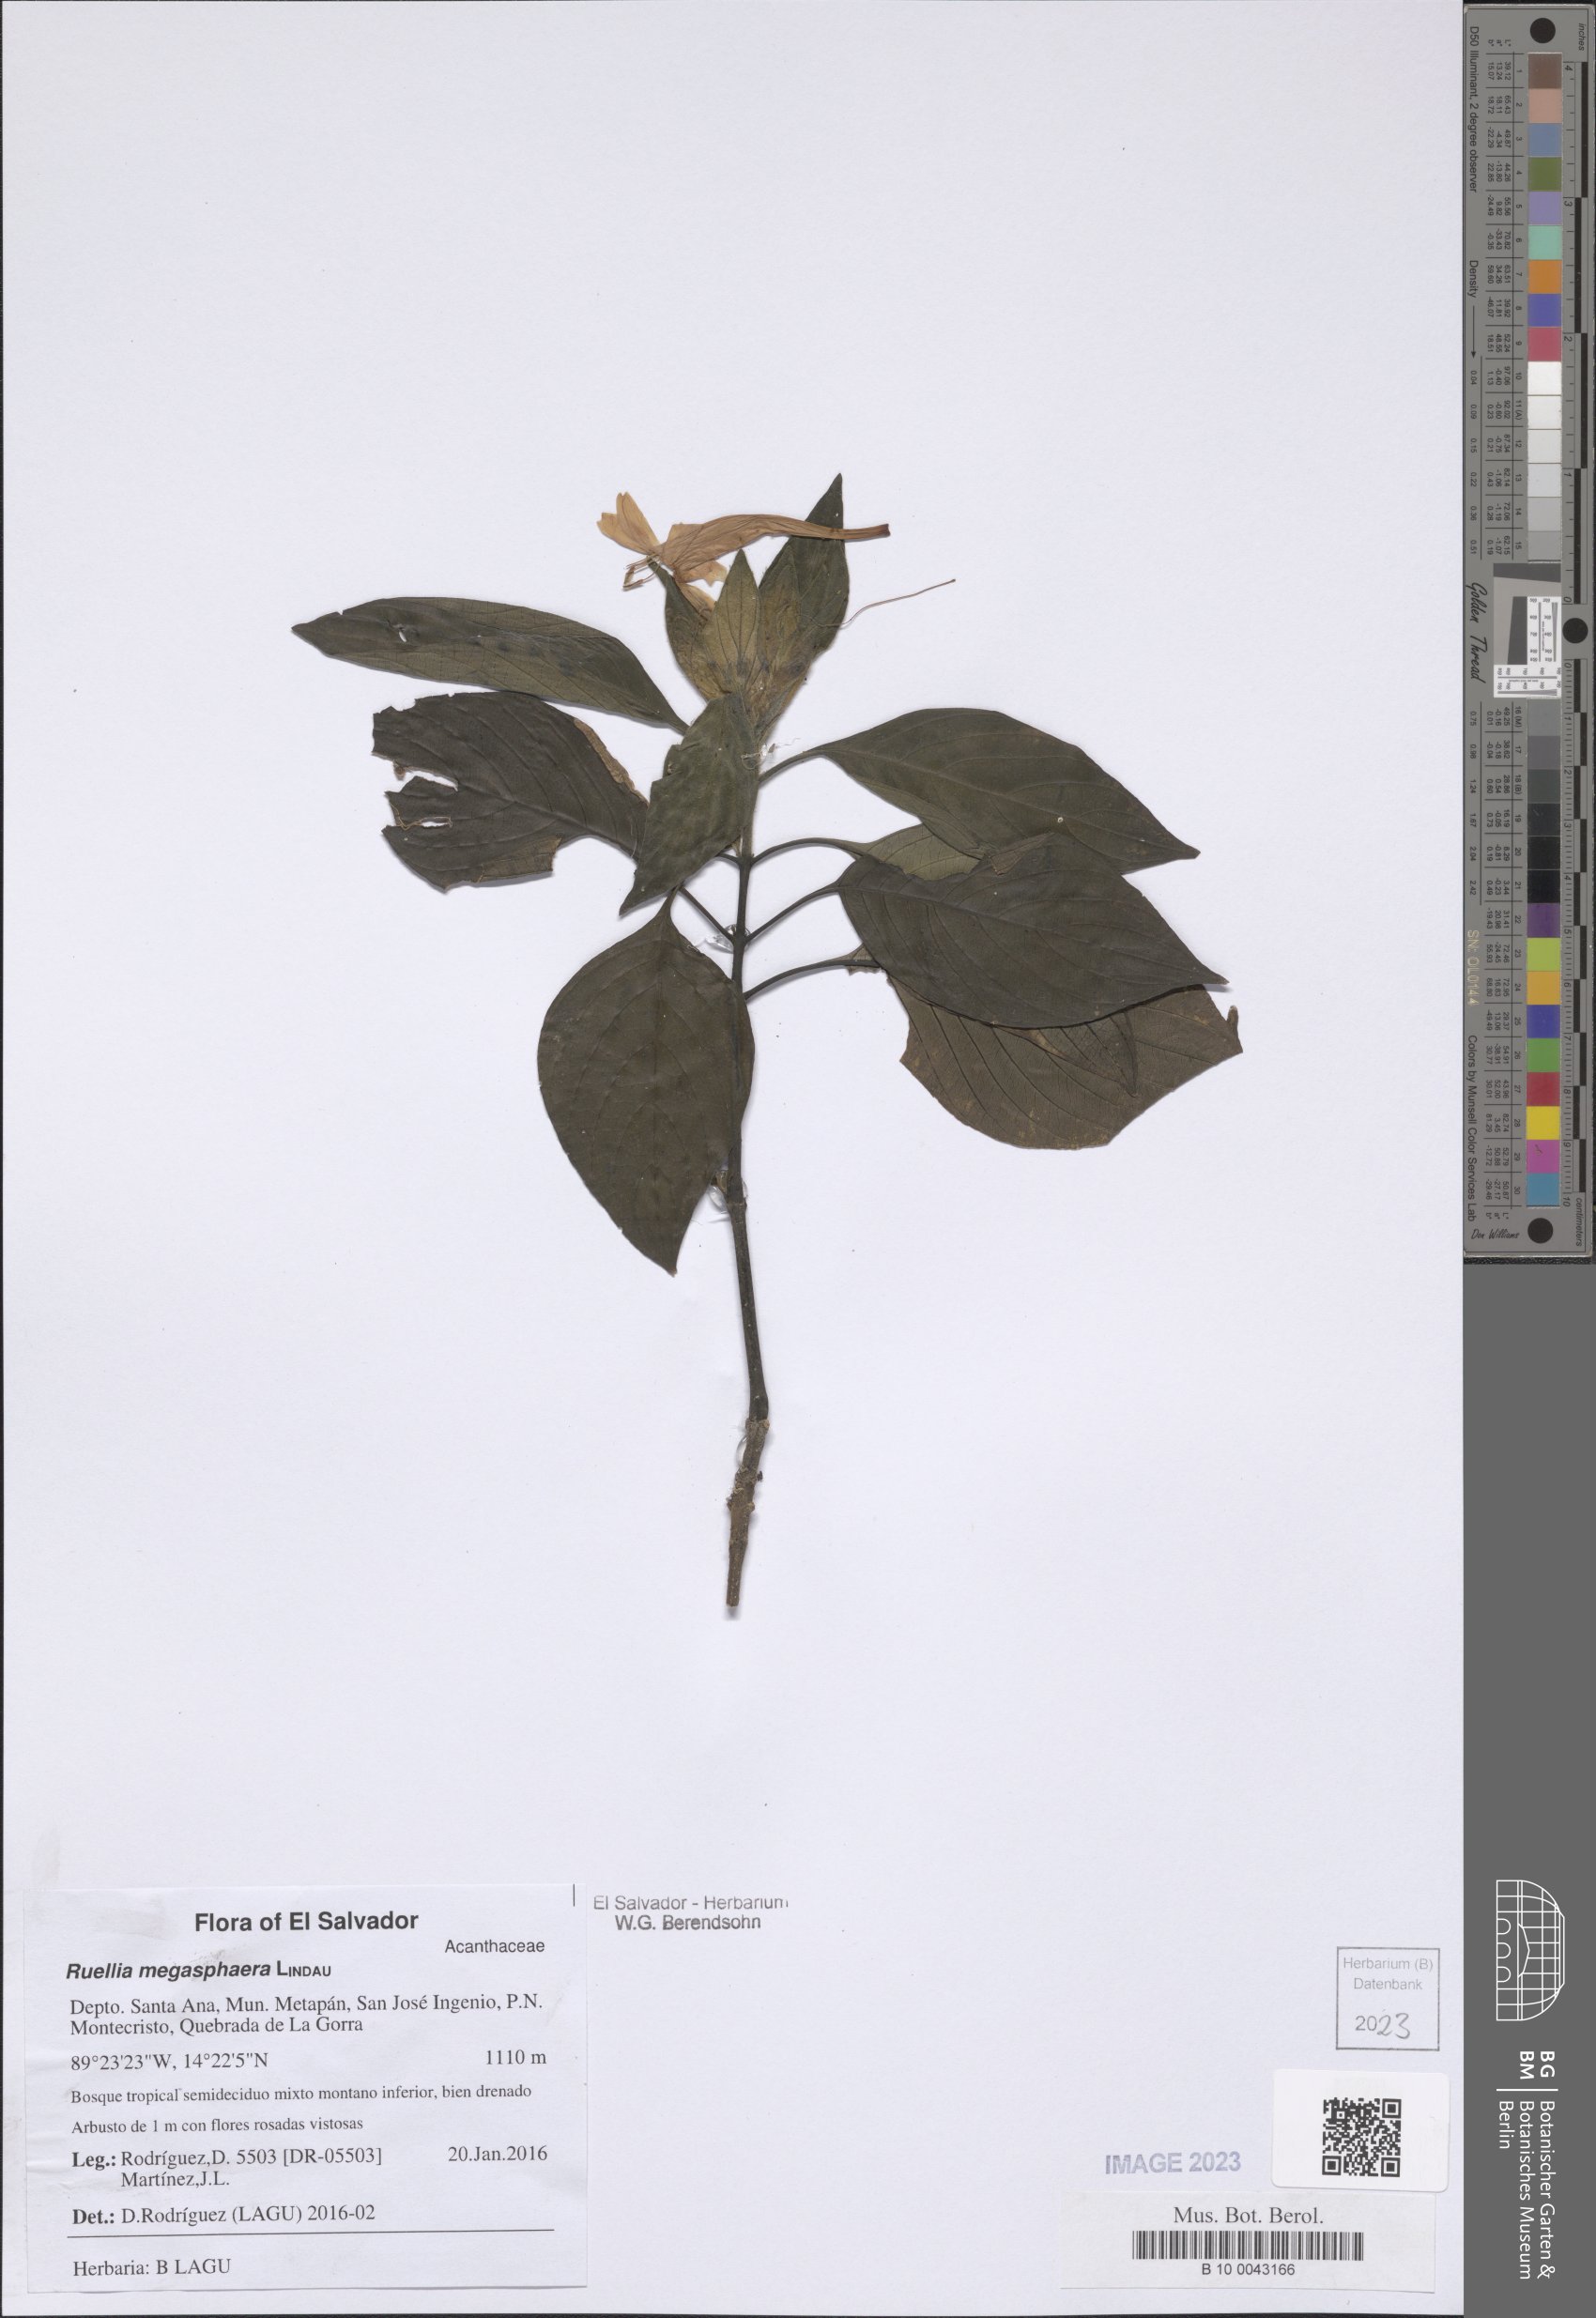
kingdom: Plantae
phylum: Tracheophyta
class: Magnoliopsida
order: Lamiales
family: Acanthaceae
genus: Ruellia
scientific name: Ruellia megasphaera
